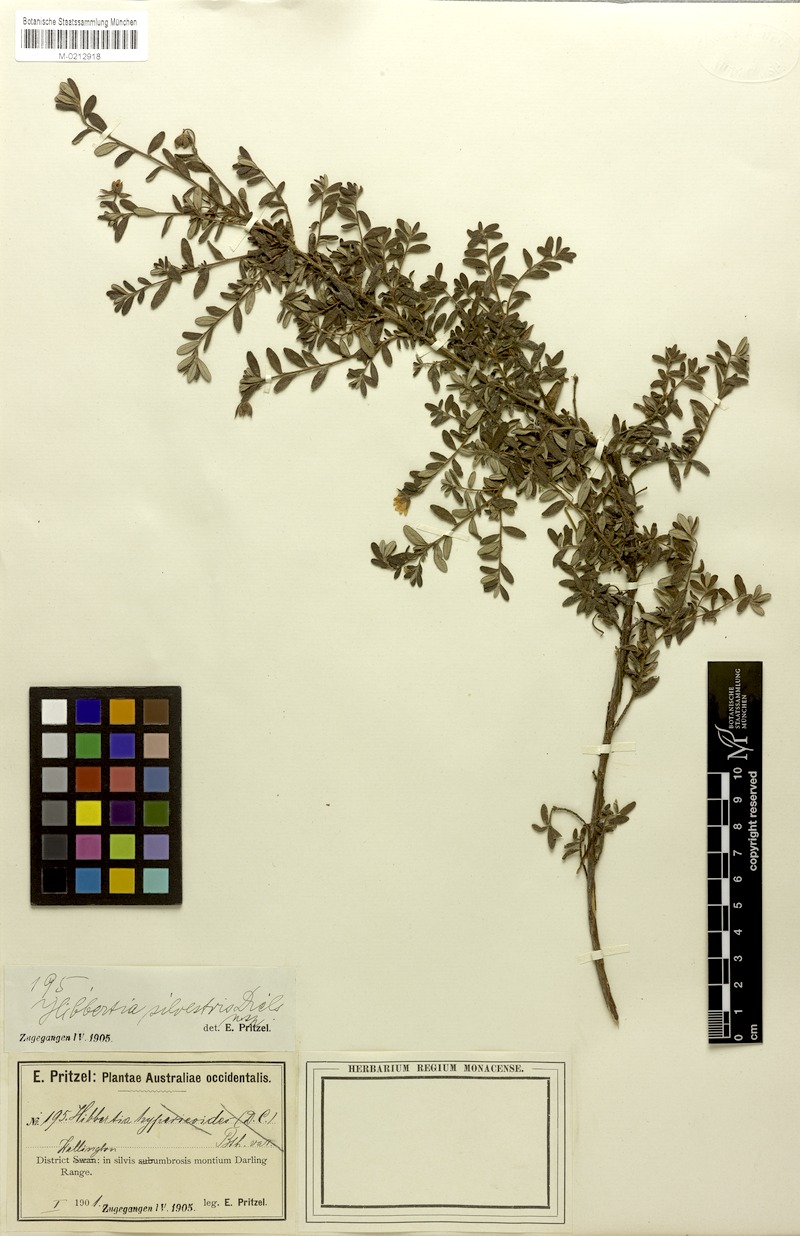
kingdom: Plantae
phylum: Tracheophyta
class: Magnoliopsida
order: Dilleniales
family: Dilleniaceae
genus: Hibbertia
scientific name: Hibbertia silvestris
